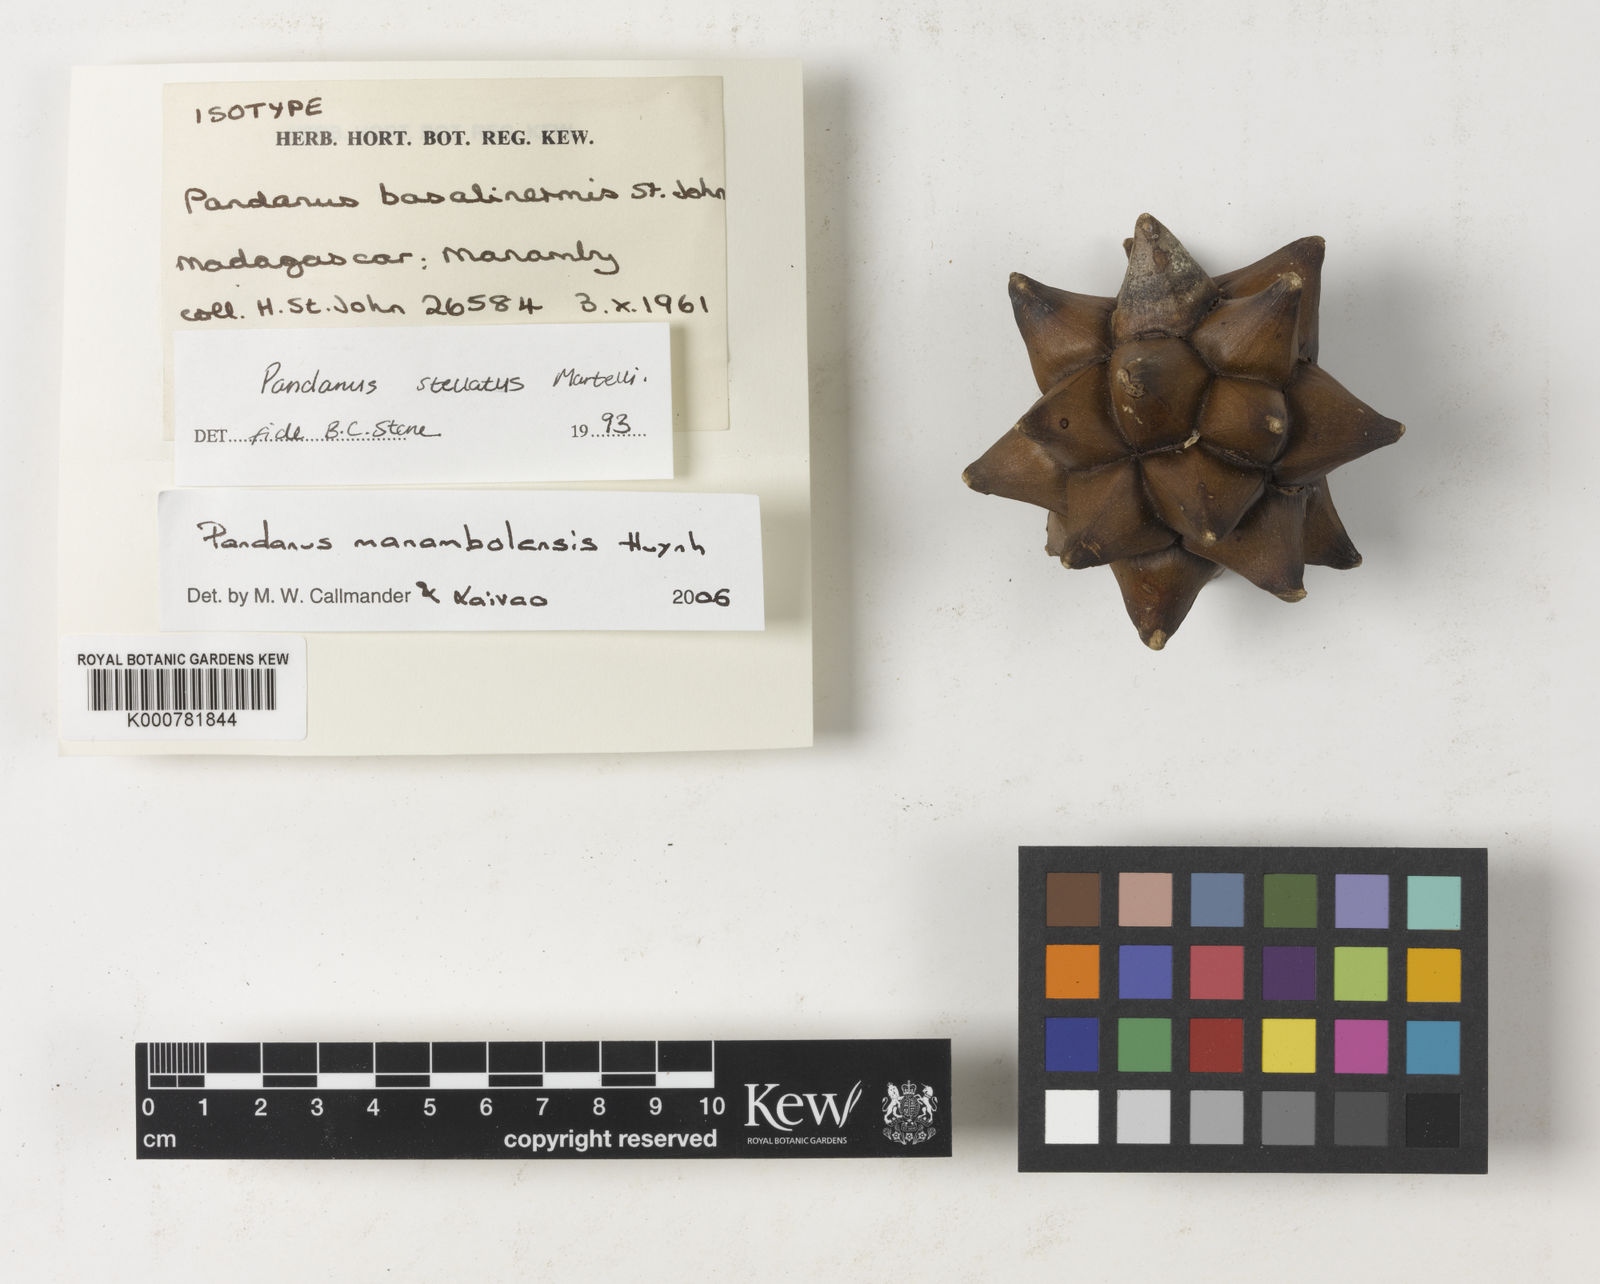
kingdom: Plantae
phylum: Tracheophyta
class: Liliopsida
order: Pandanales
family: Pandanaceae
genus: Pandanus
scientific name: Pandanus
